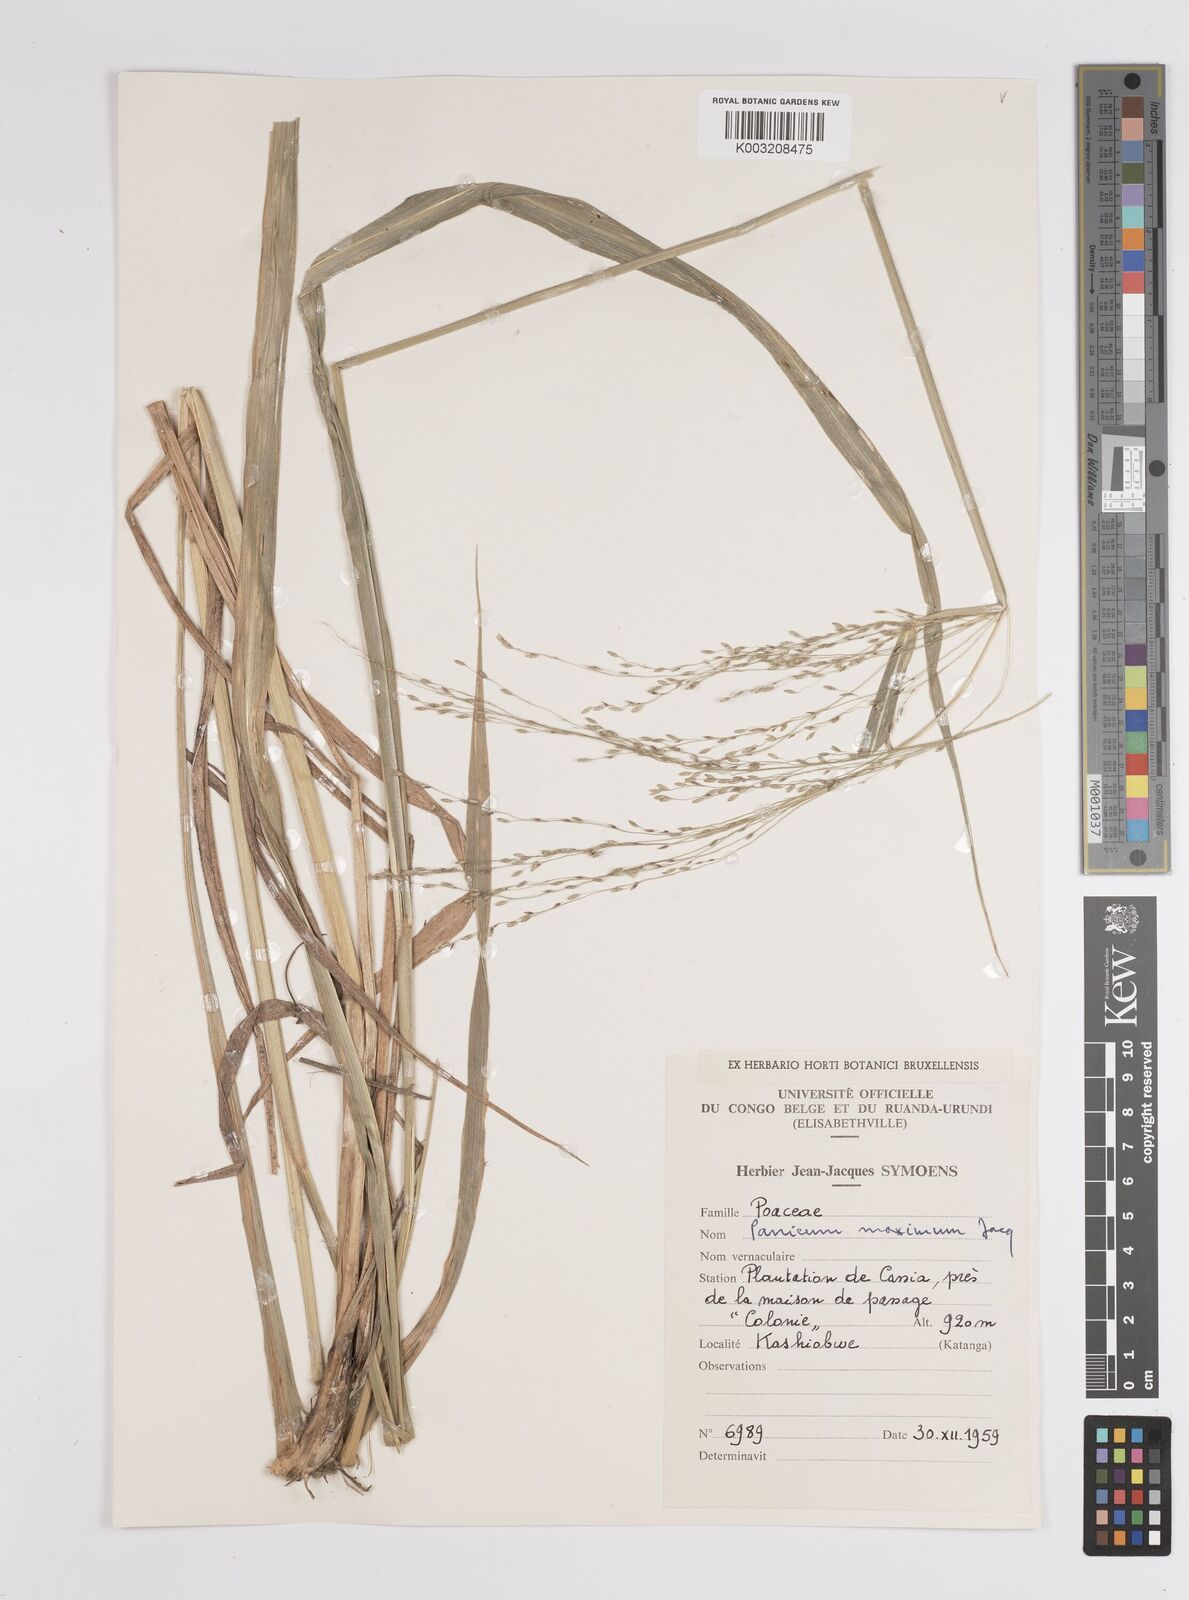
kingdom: Plantae
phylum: Tracheophyta
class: Liliopsida
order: Poales
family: Poaceae
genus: Megathyrsus
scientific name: Megathyrsus maximus
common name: Guineagrass
